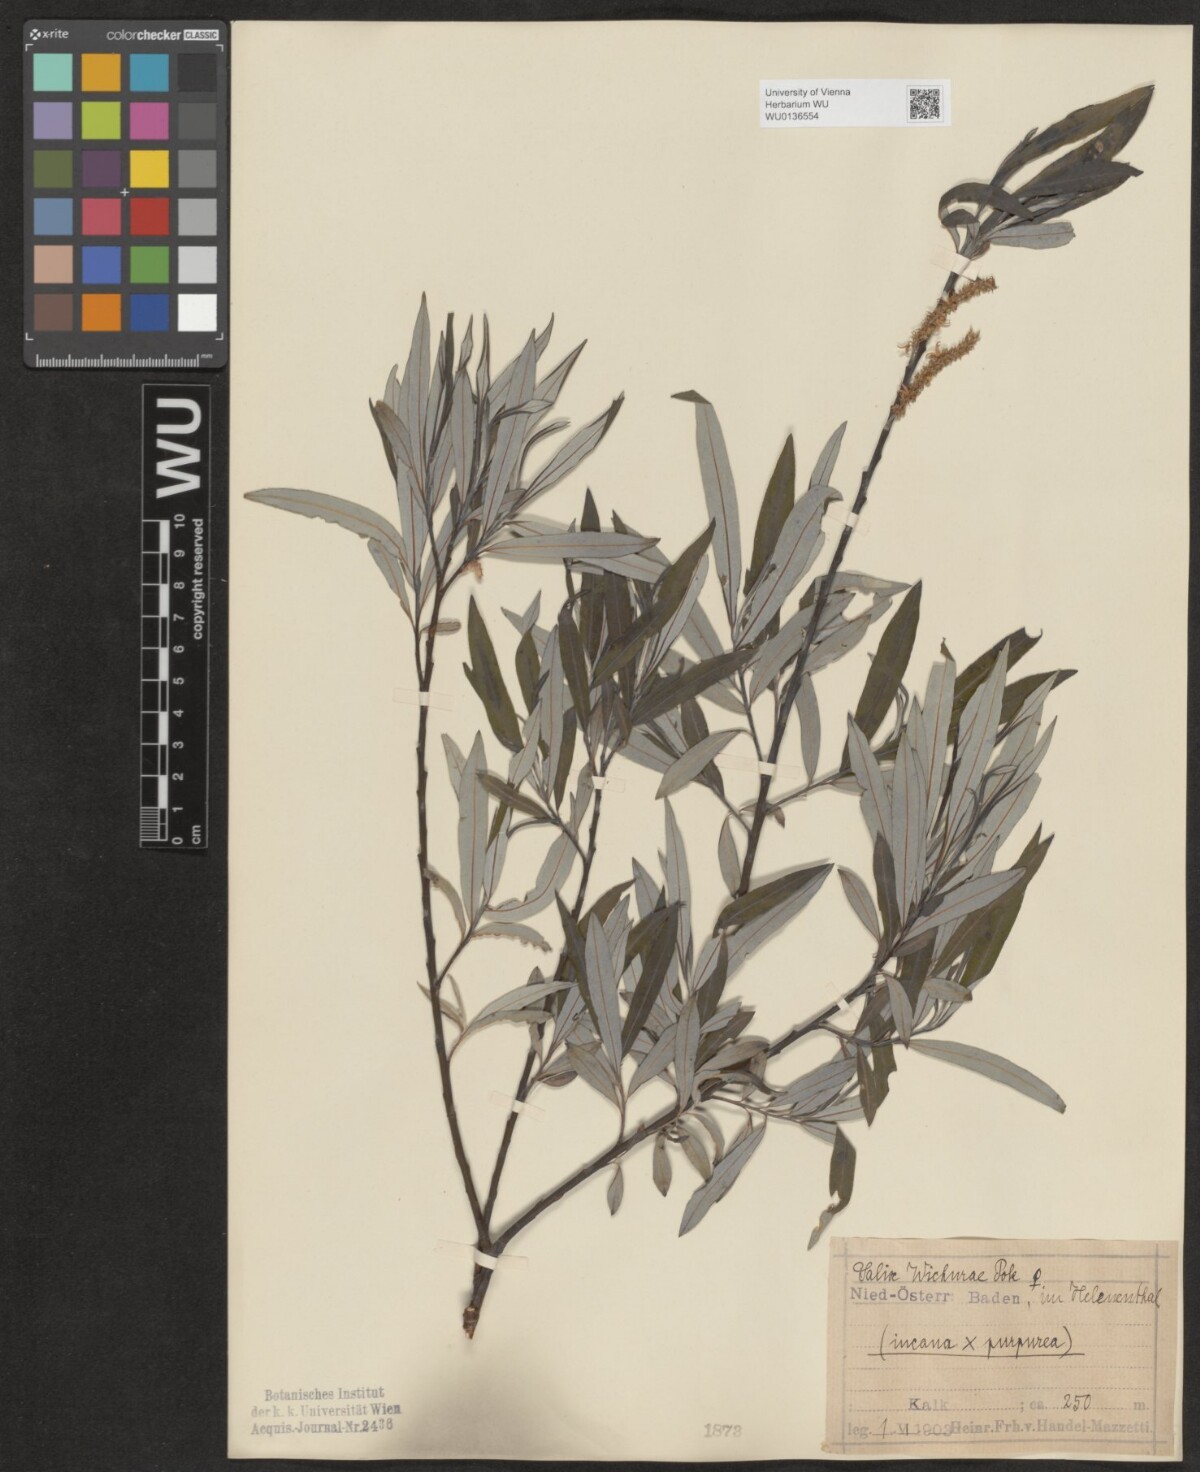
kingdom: Plantae
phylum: Tracheophyta
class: Magnoliopsida
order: Malpighiales
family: Salicaceae
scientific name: Salicaceae
